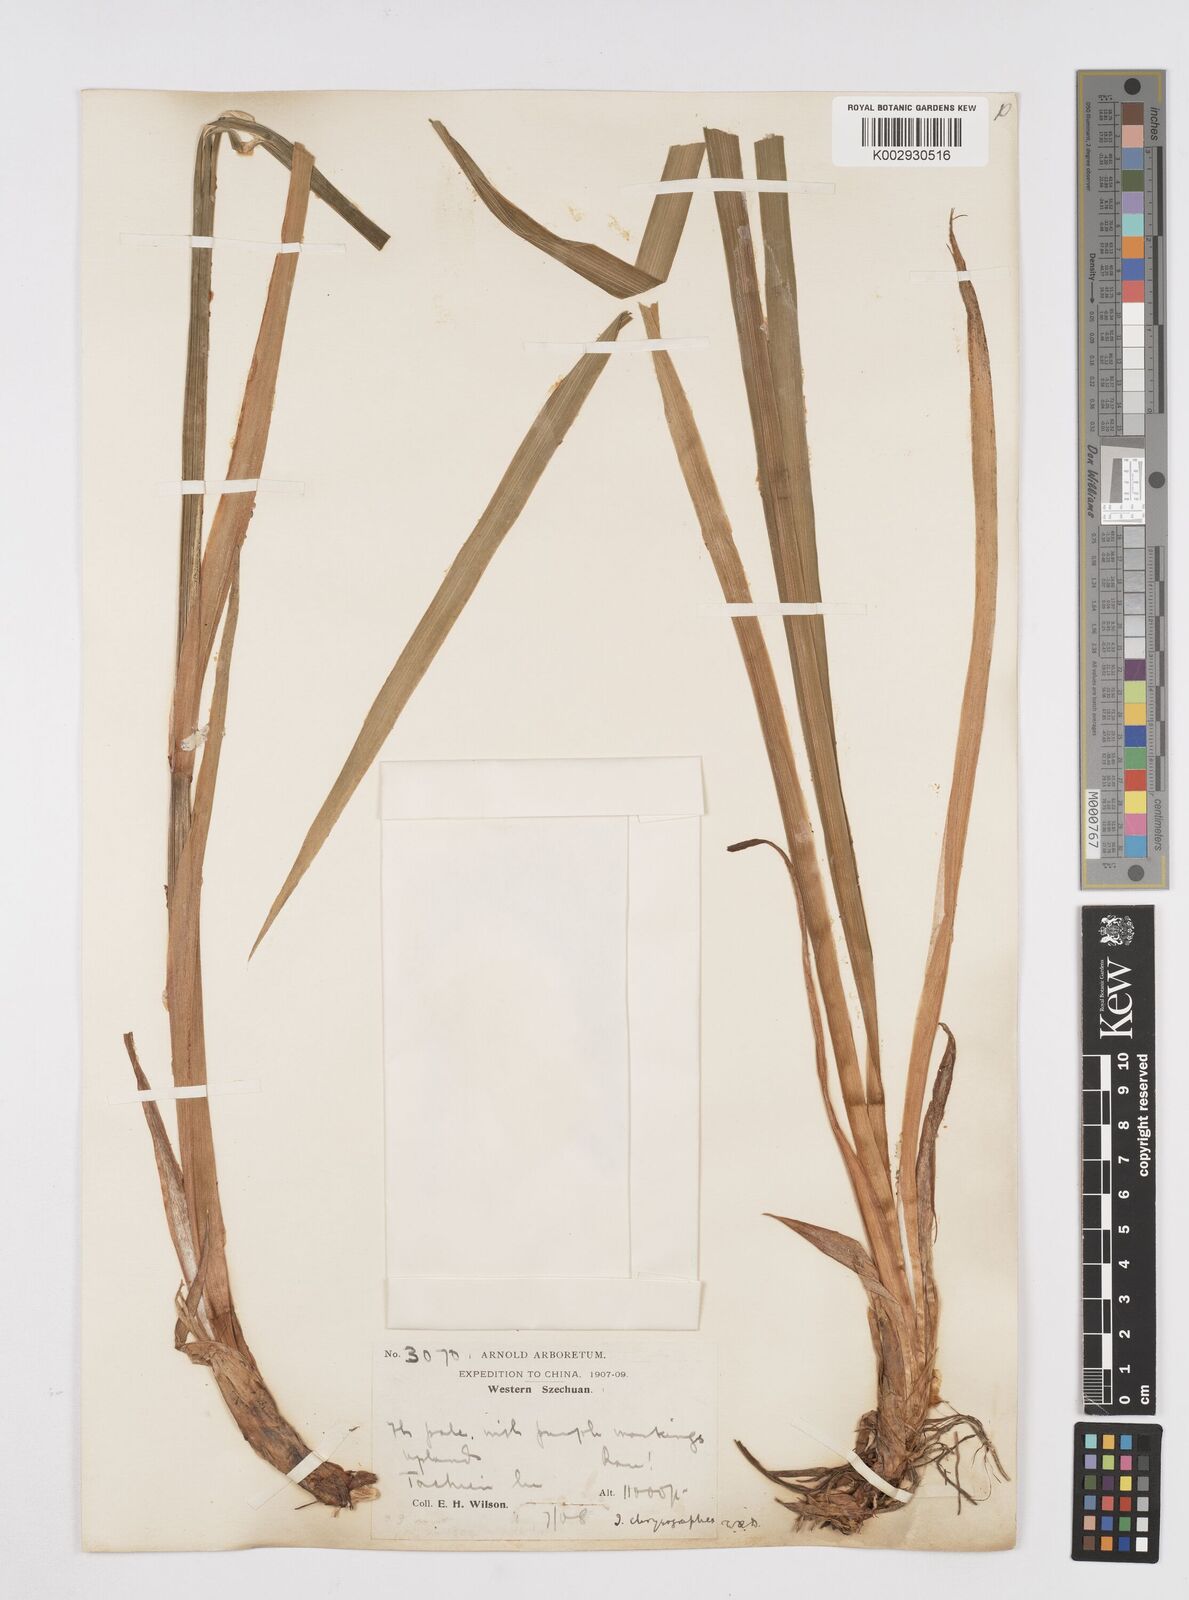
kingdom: Plantae
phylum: Tracheophyta
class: Liliopsida
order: Asparagales
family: Iridaceae
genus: Iris
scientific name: Iris chrysographes
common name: Gold-vein iris
